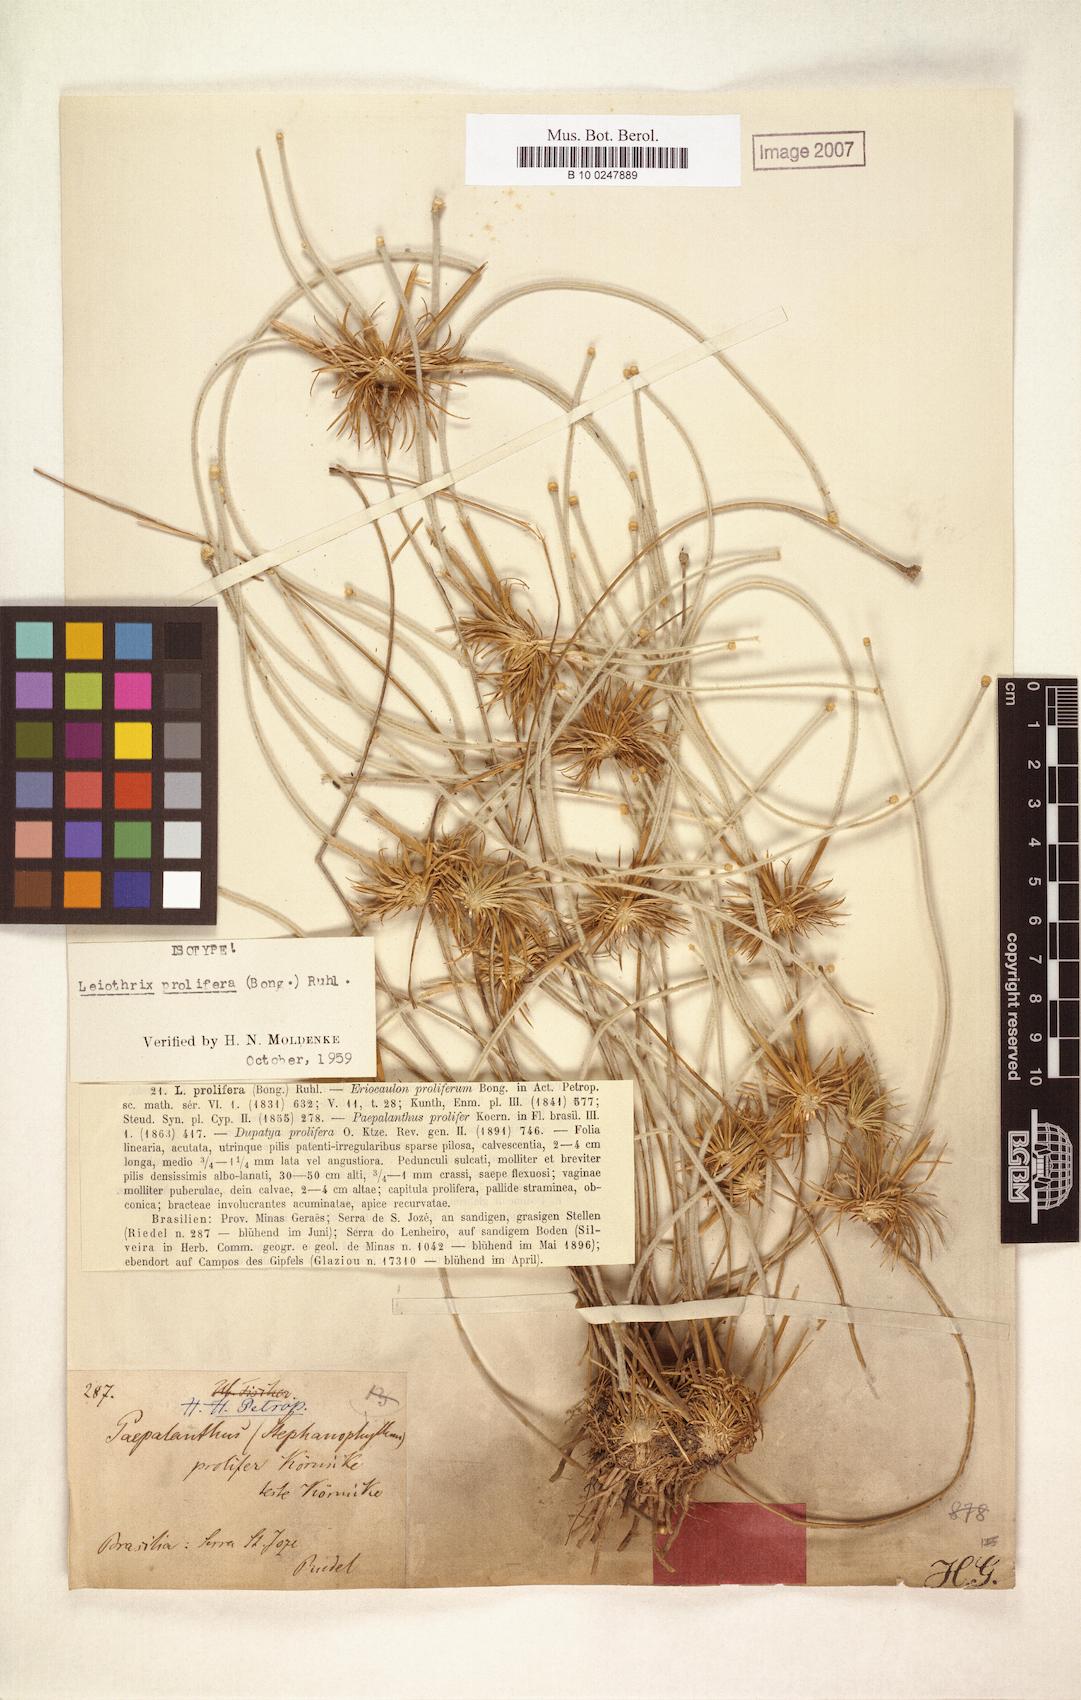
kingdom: Plantae
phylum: Tracheophyta
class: Liliopsida
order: Poales
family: Eriocaulaceae
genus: Leiothrix
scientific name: Leiothrix prolifera
